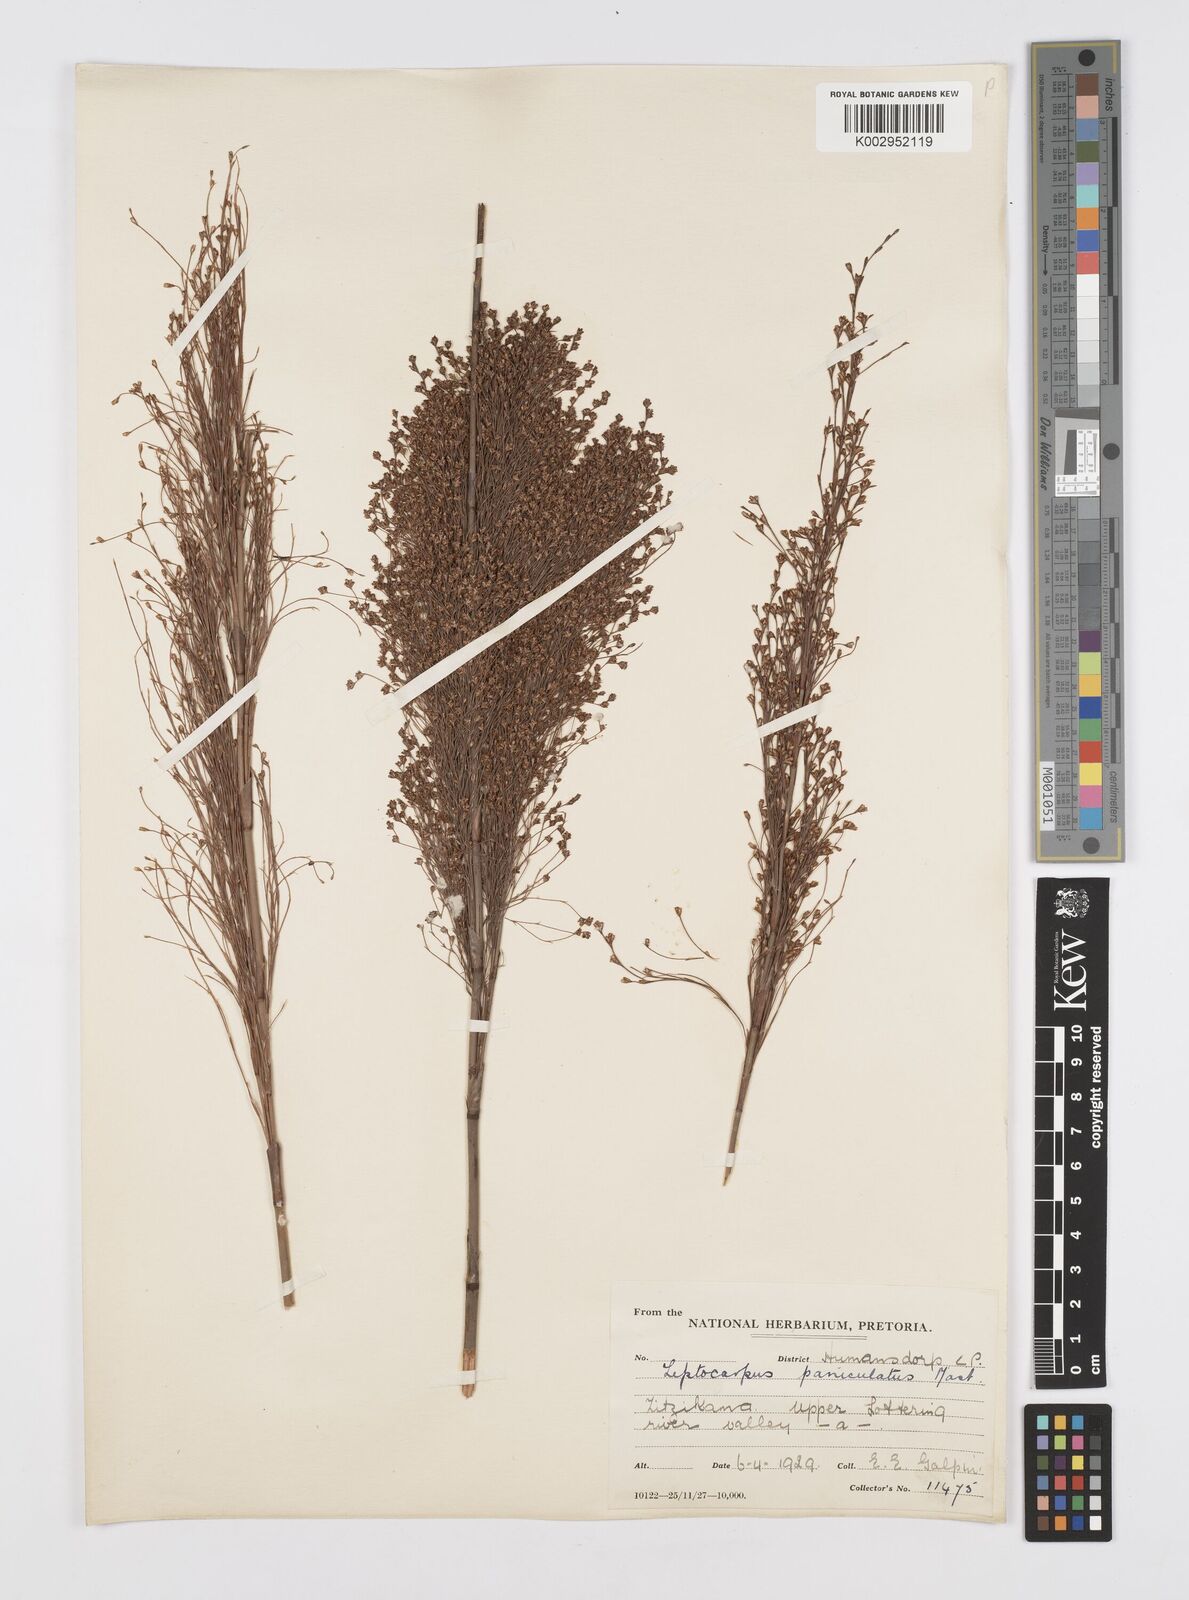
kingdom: Plantae
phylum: Tracheophyta
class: Liliopsida
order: Poales
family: Restionaceae
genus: Restio
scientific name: Restio paniculatus
